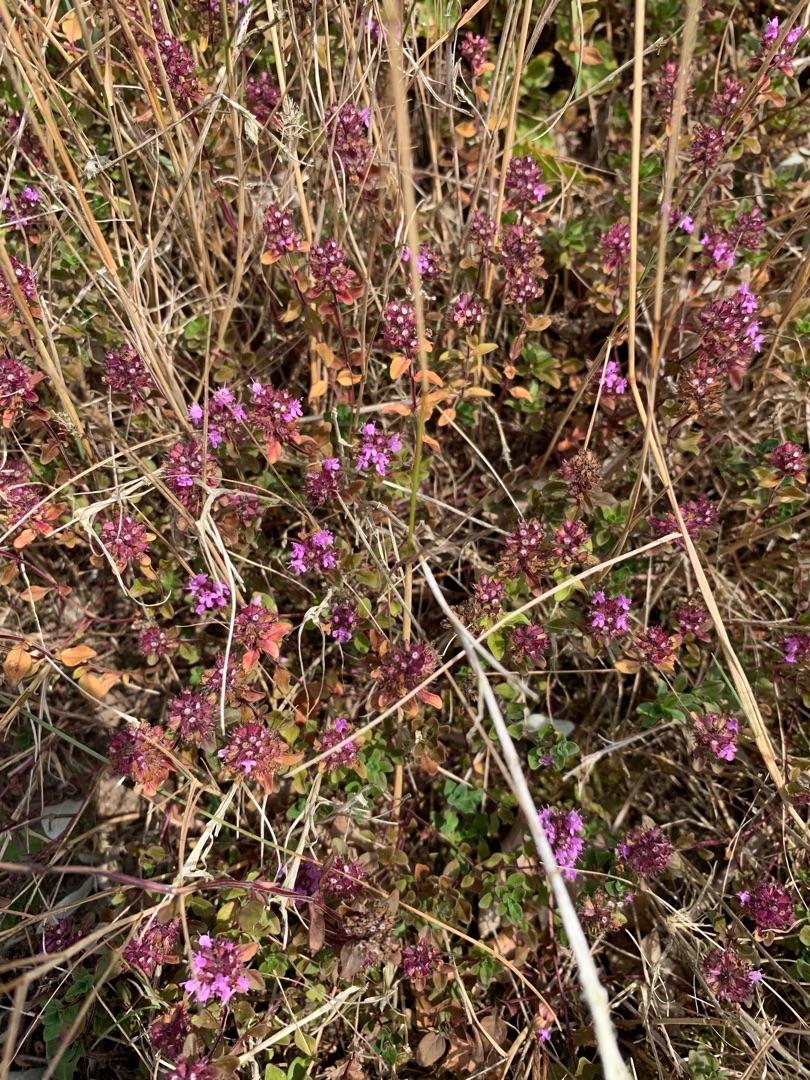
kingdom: Plantae
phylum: Tracheophyta
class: Magnoliopsida
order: Lamiales
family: Lamiaceae
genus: Thymus
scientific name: Thymus pulegioides
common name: Bredbladet timian
